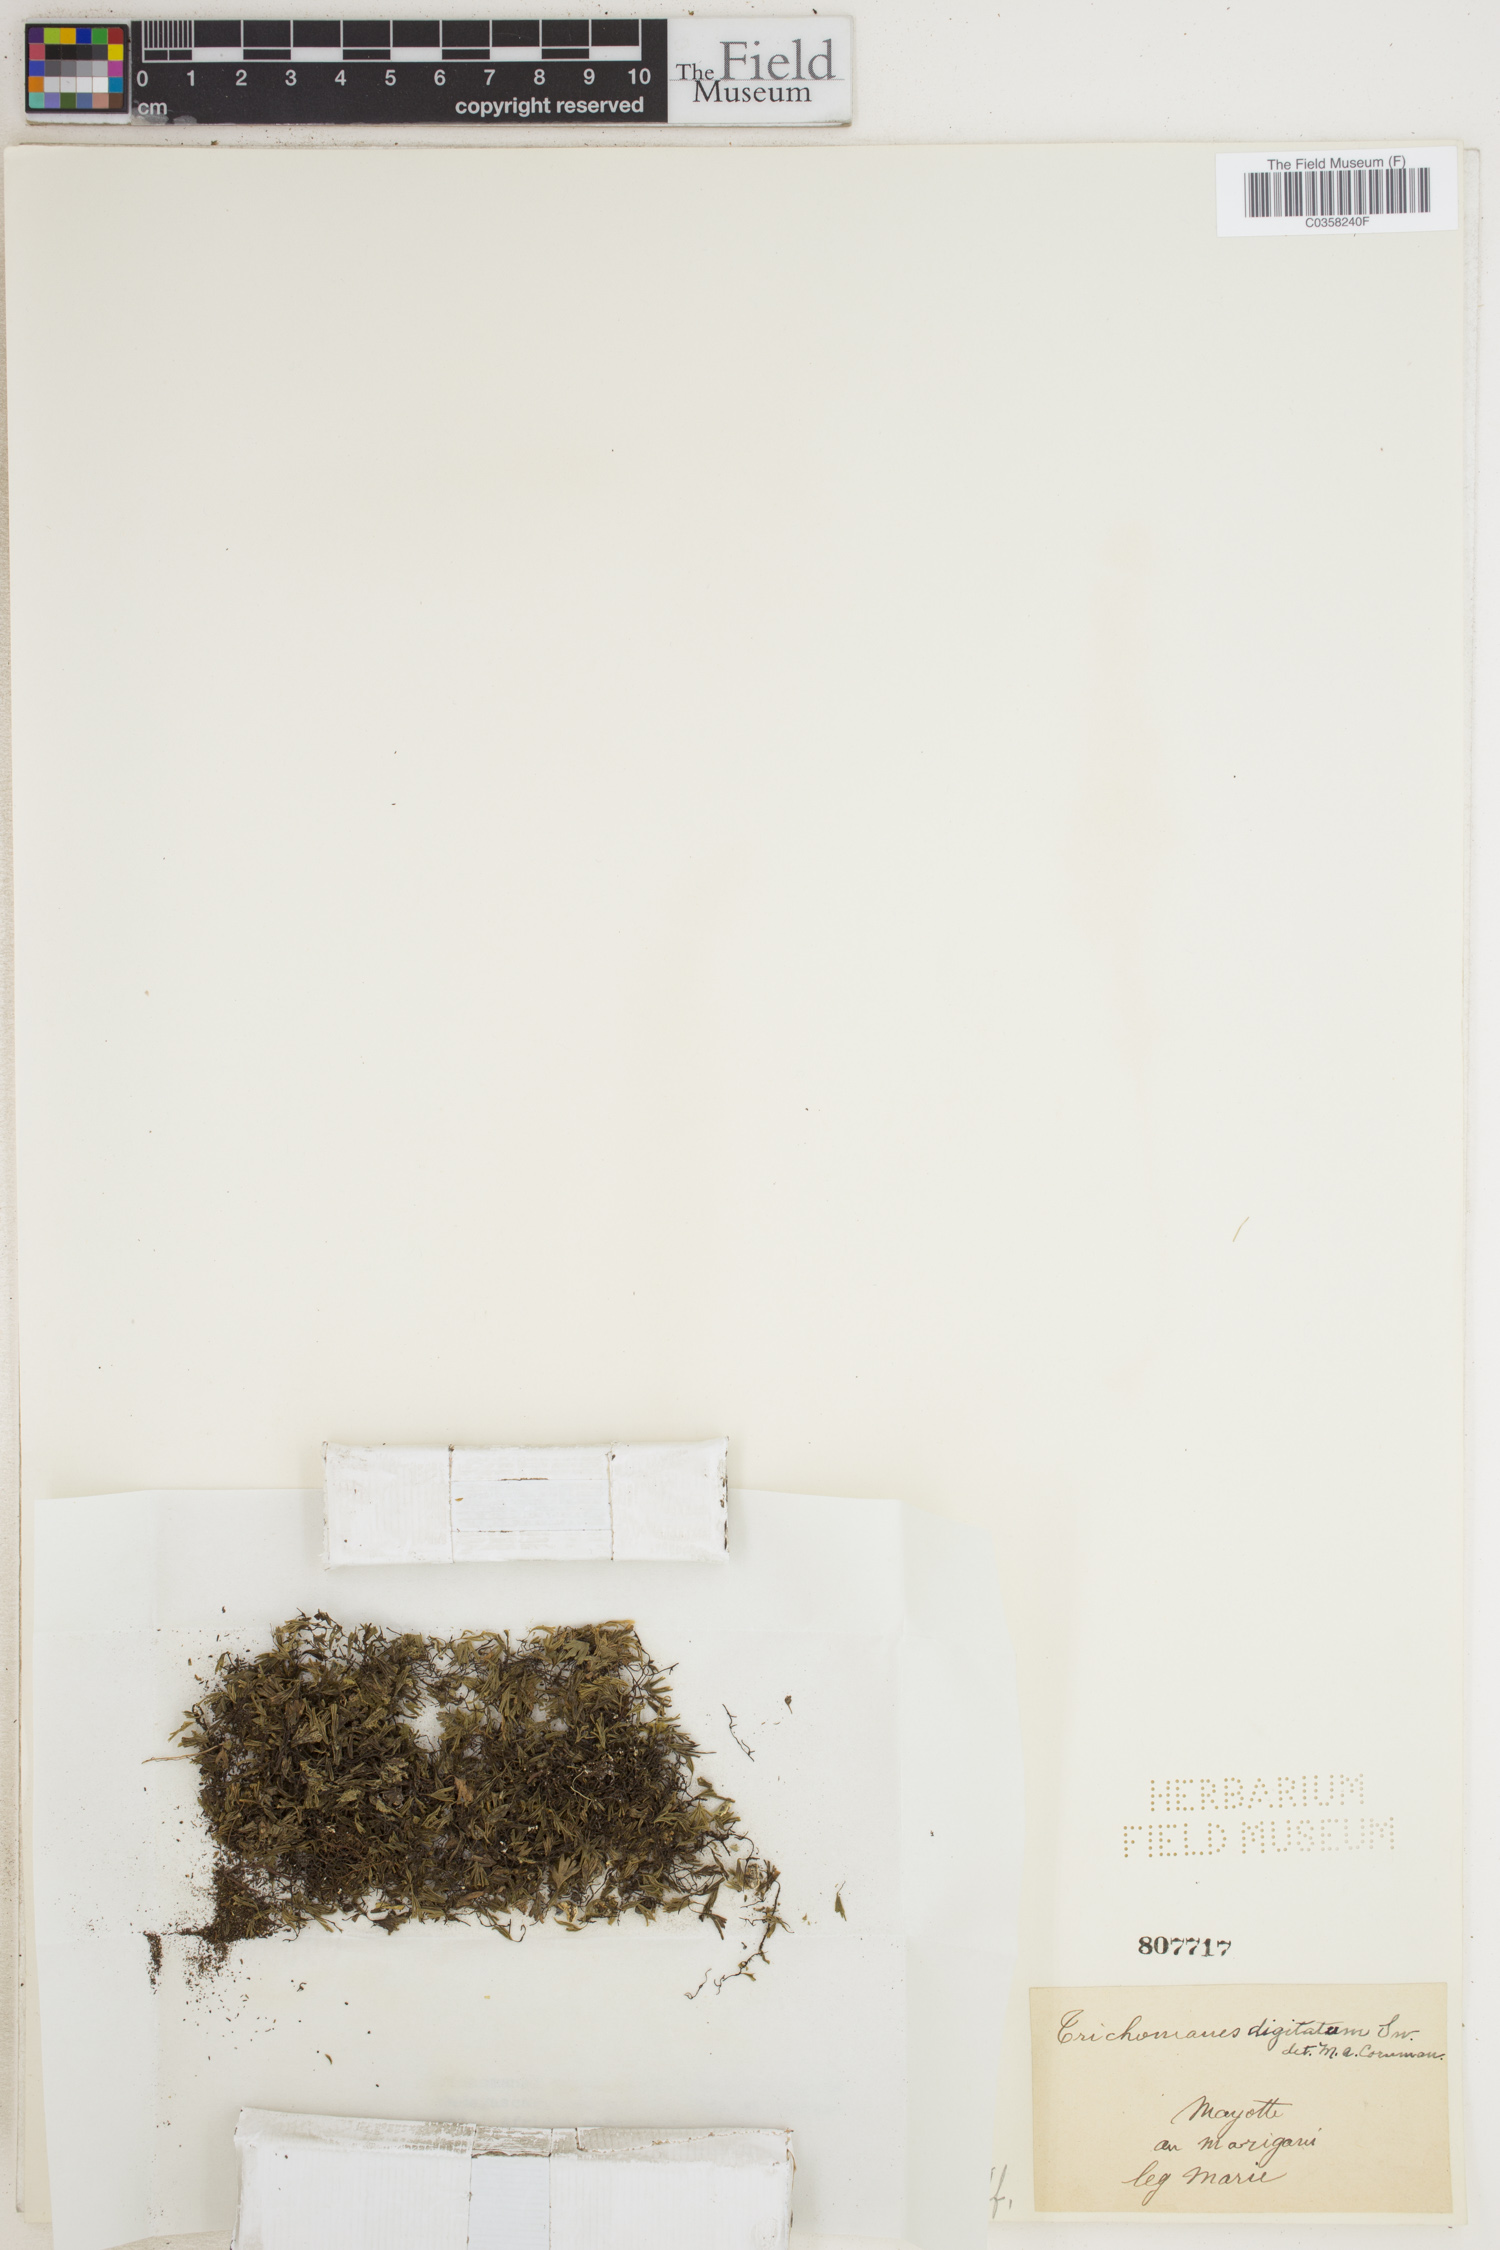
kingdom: Plantae
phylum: Tracheophyta
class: Polypodiopsida
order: Hymenophyllales
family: Hymenophyllaceae
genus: Crepidomanes
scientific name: Crepidomanes parvulum
